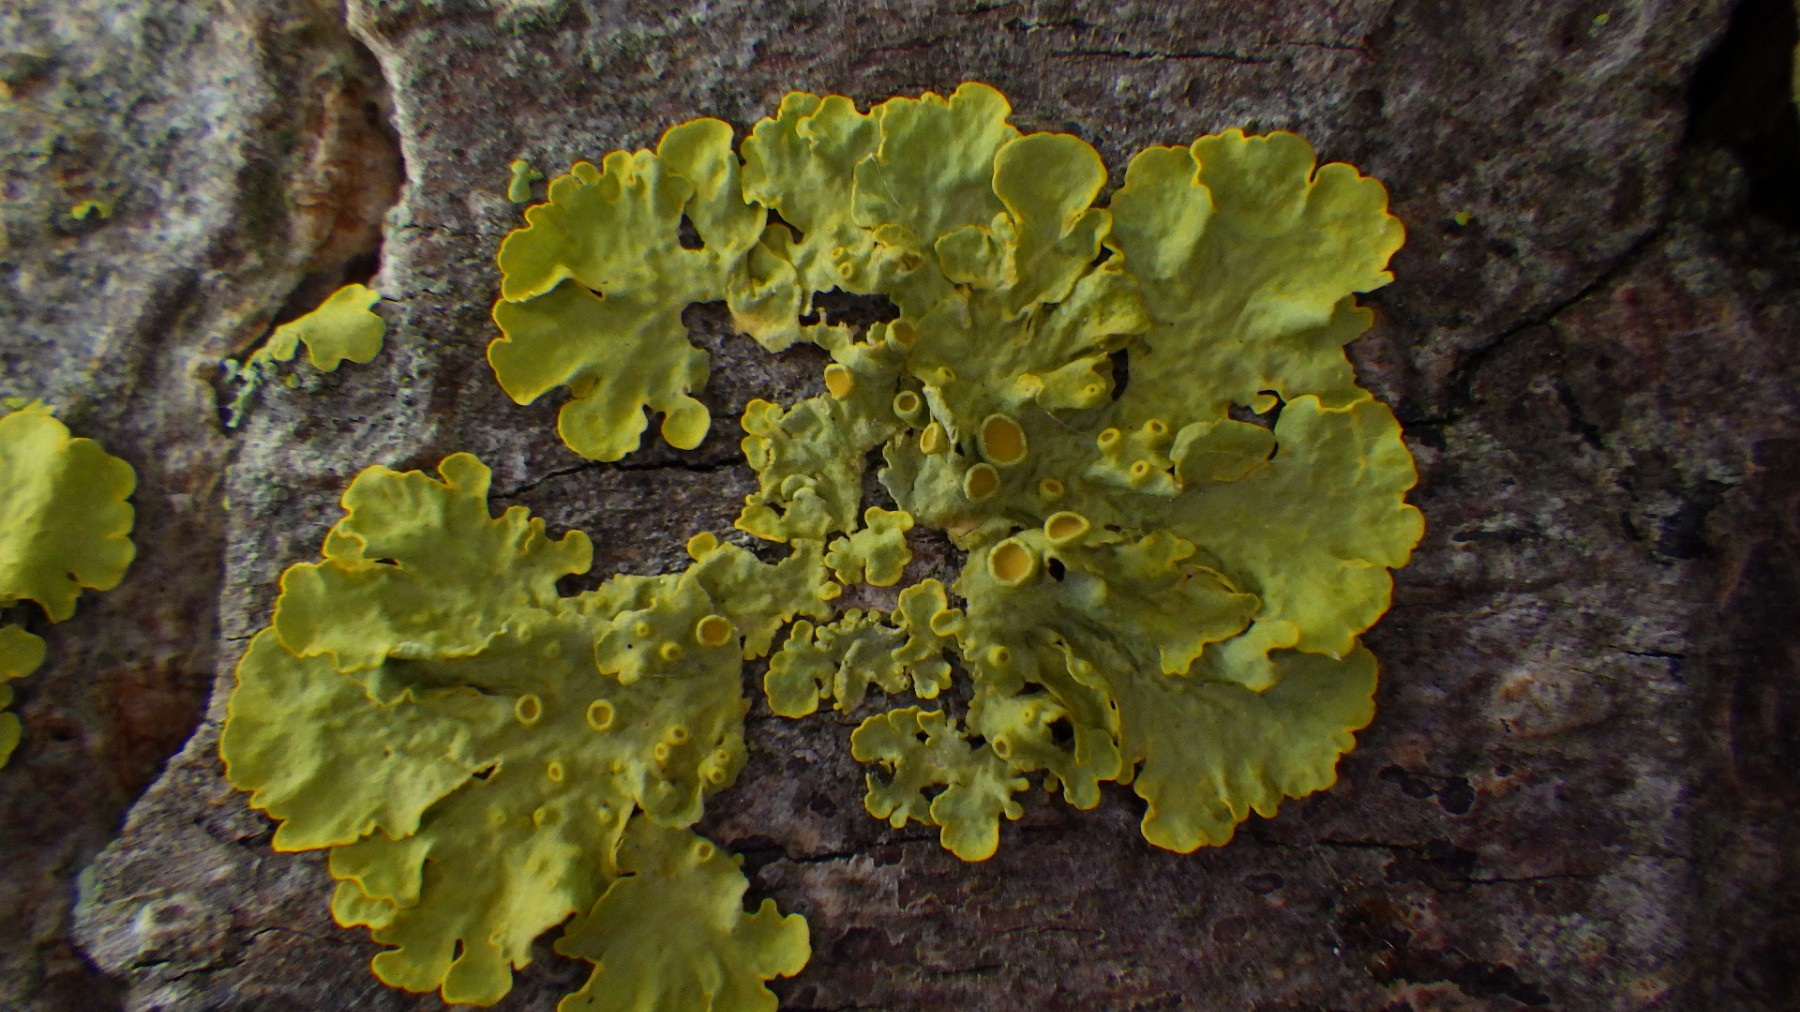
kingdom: Fungi
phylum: Ascomycota
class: Lecanoromycetes
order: Teloschistales
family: Teloschistaceae
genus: Xanthoria
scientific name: Xanthoria parietina
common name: almindelig væggelav
